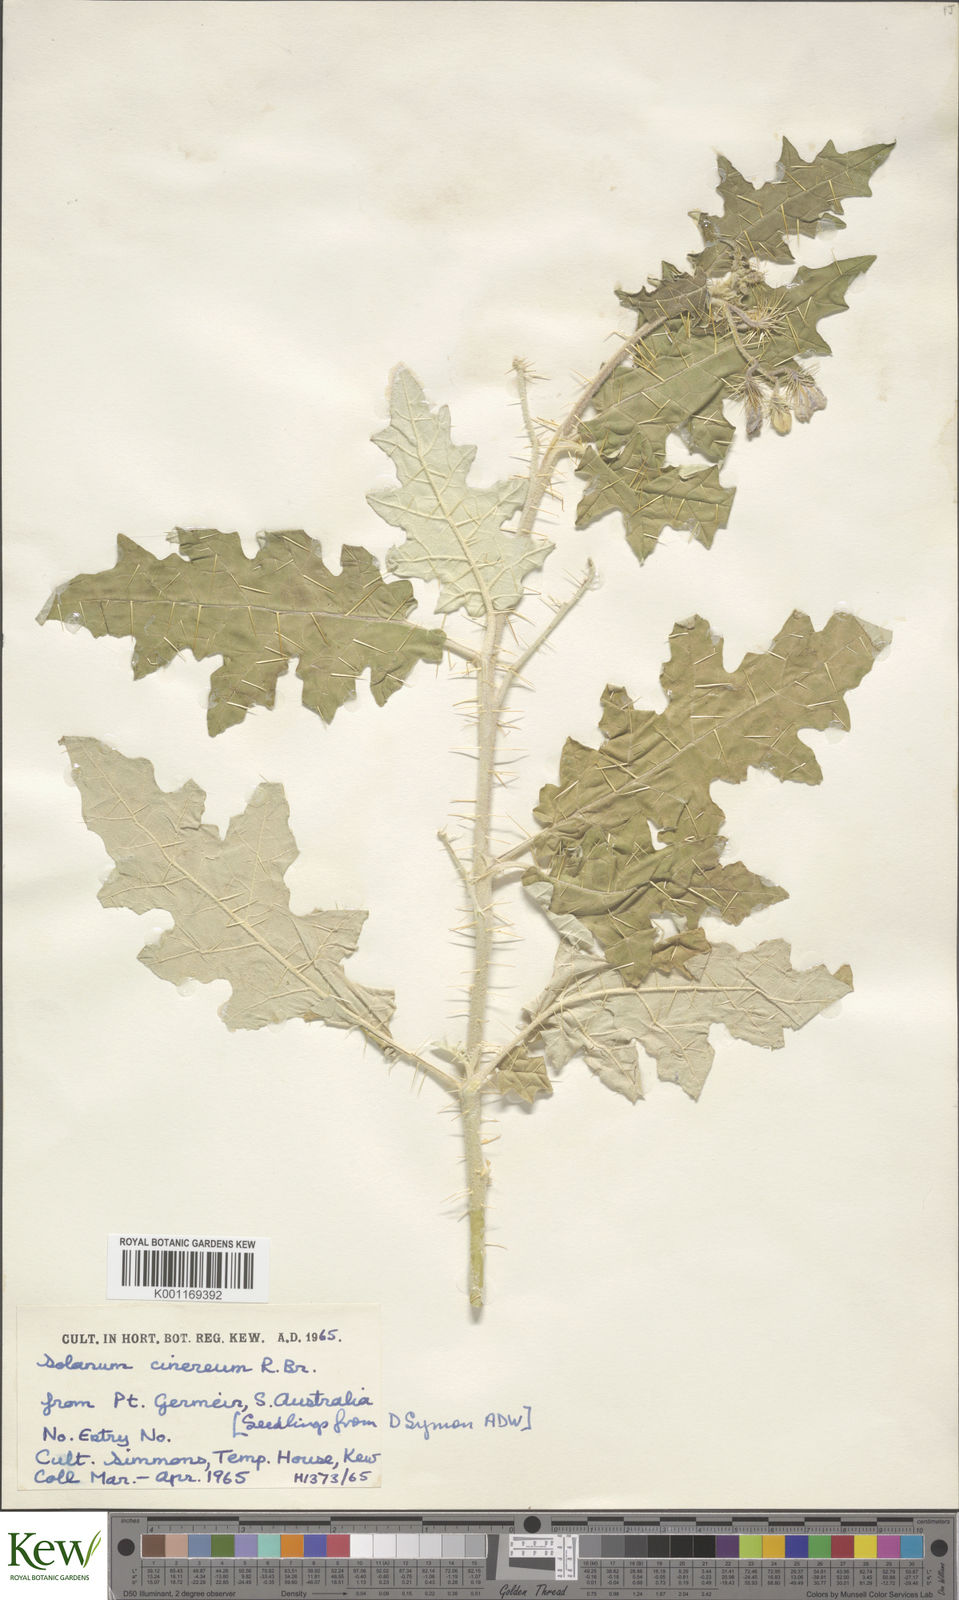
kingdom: Plantae
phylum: Tracheophyta
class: Magnoliopsida
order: Solanales
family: Solanaceae
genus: Solanum
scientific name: Solanum
